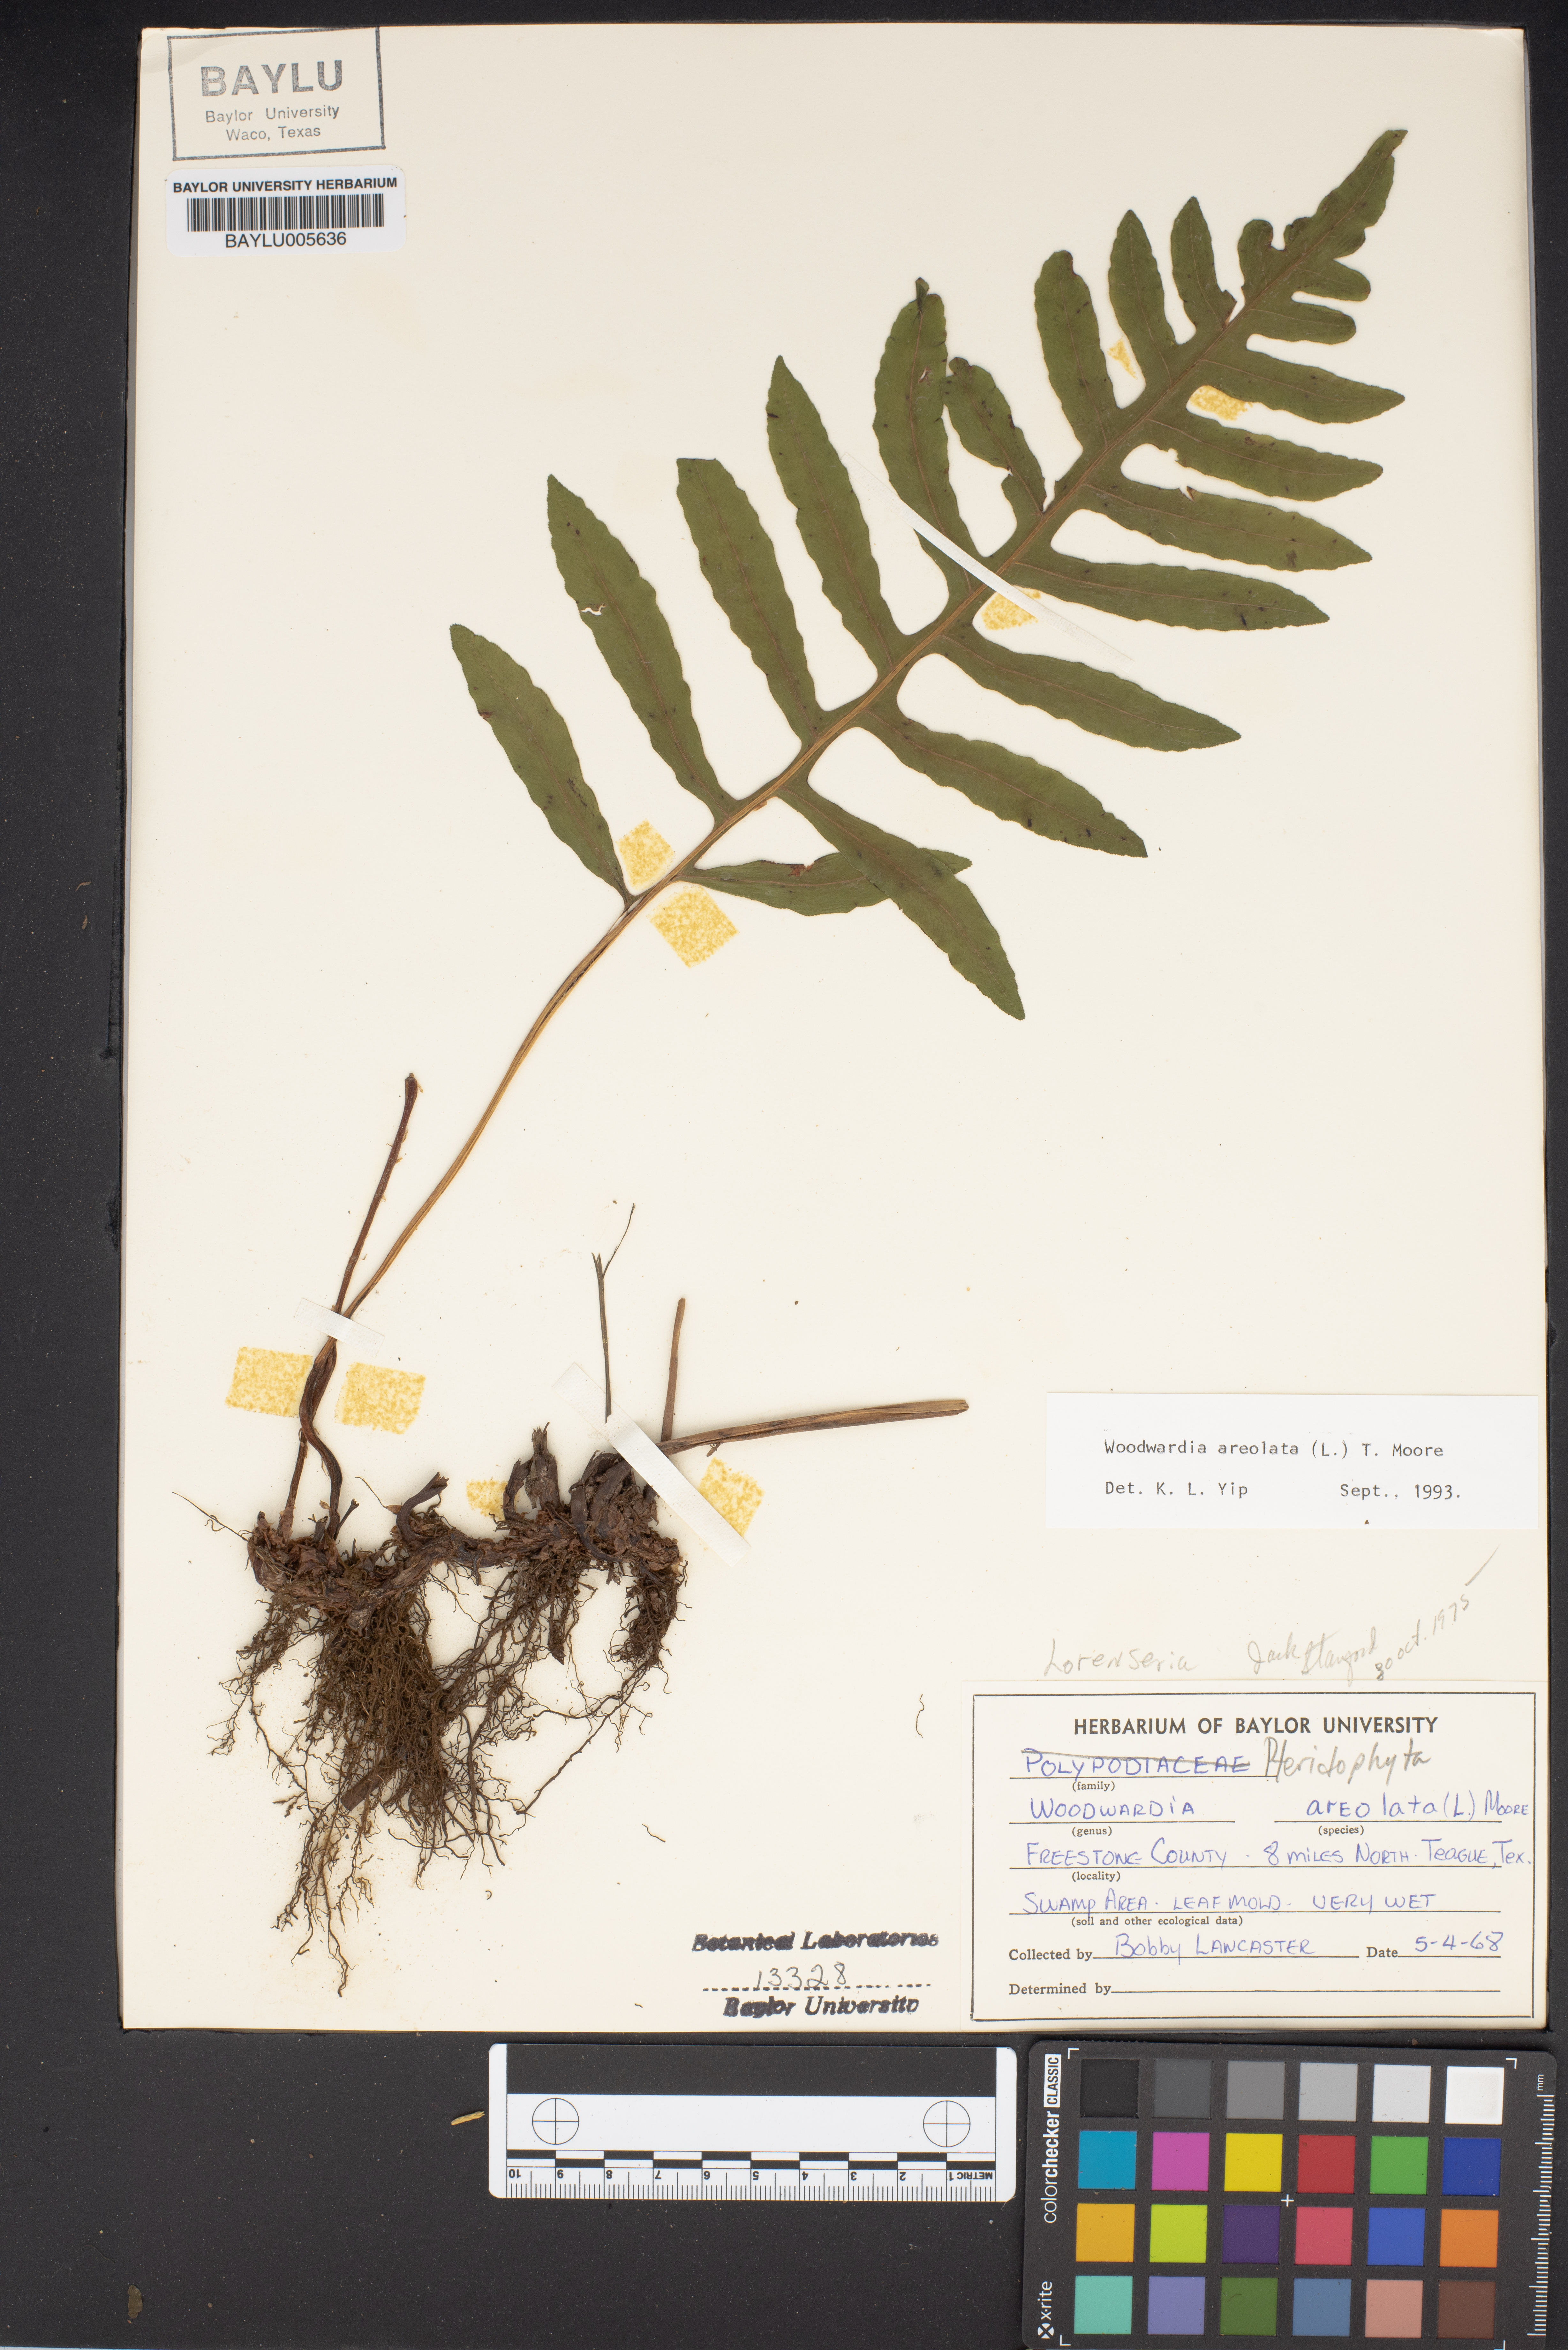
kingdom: Plantae
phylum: Tracheophyta
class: Polypodiopsida
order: Polypodiales
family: Blechnaceae
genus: Lorinseria
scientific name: Lorinseria areolata
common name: Dwarf chain fern
